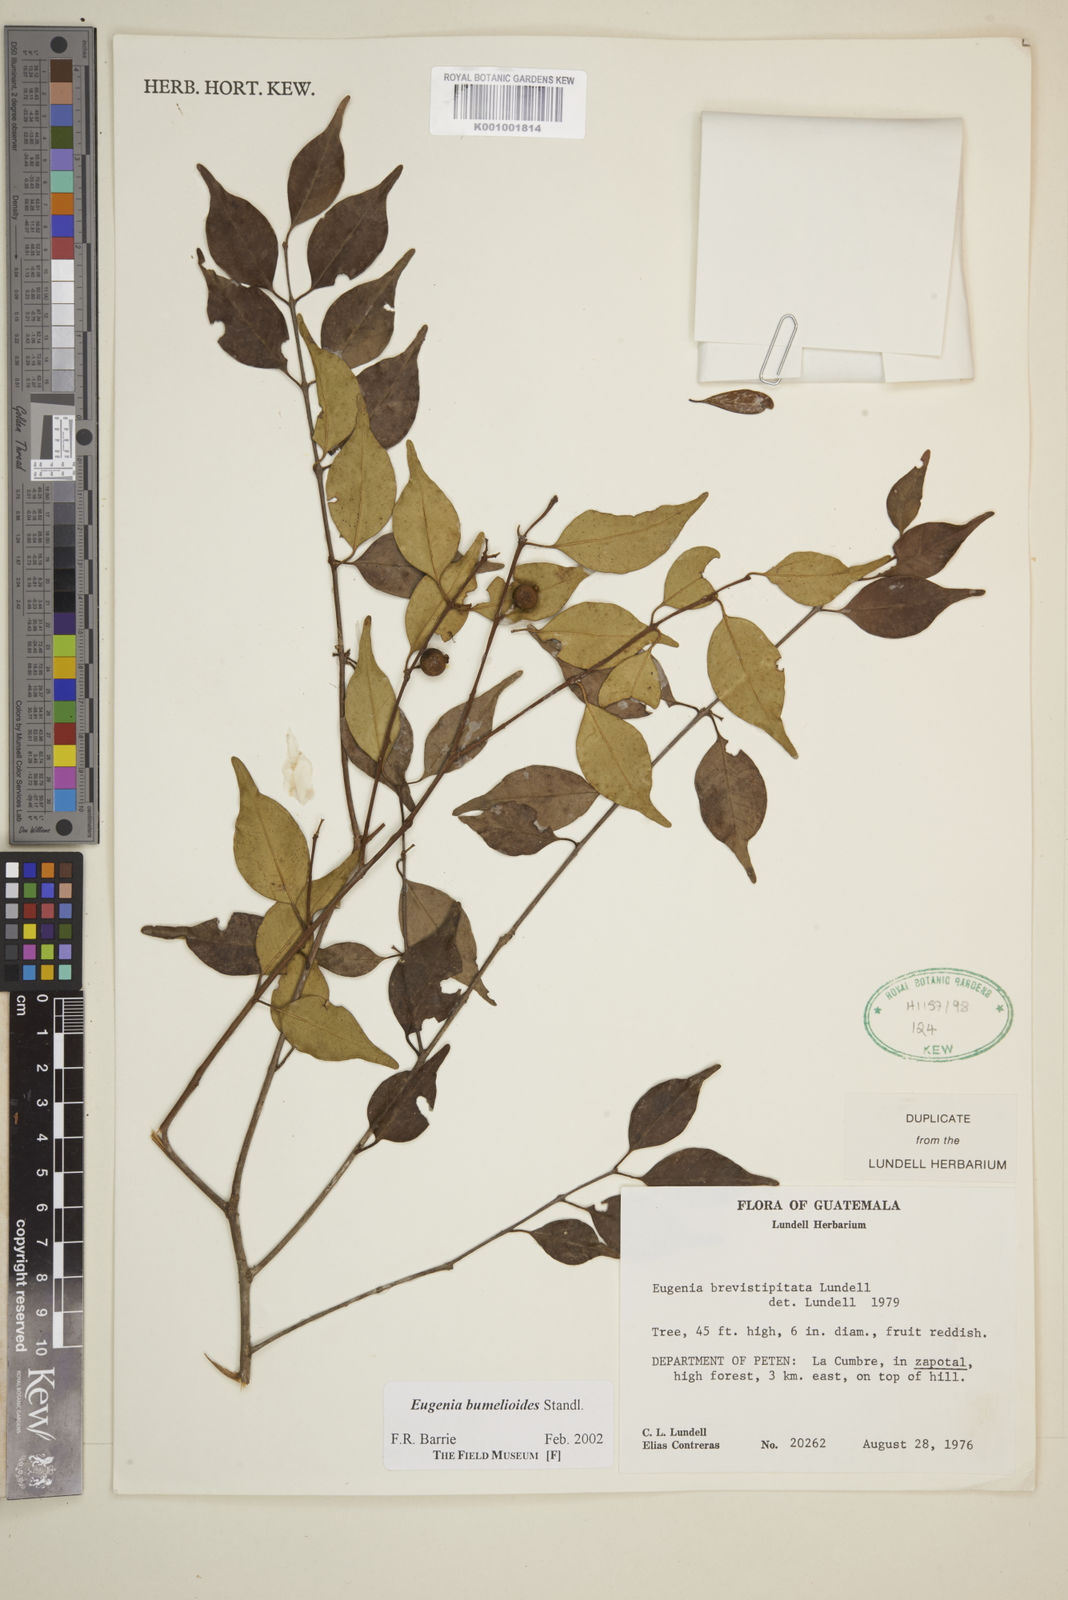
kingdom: Plantae
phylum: Tracheophyta
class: Magnoliopsida
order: Myrtales
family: Myrtaceae
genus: Eugenia
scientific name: Eugenia bumelioides
